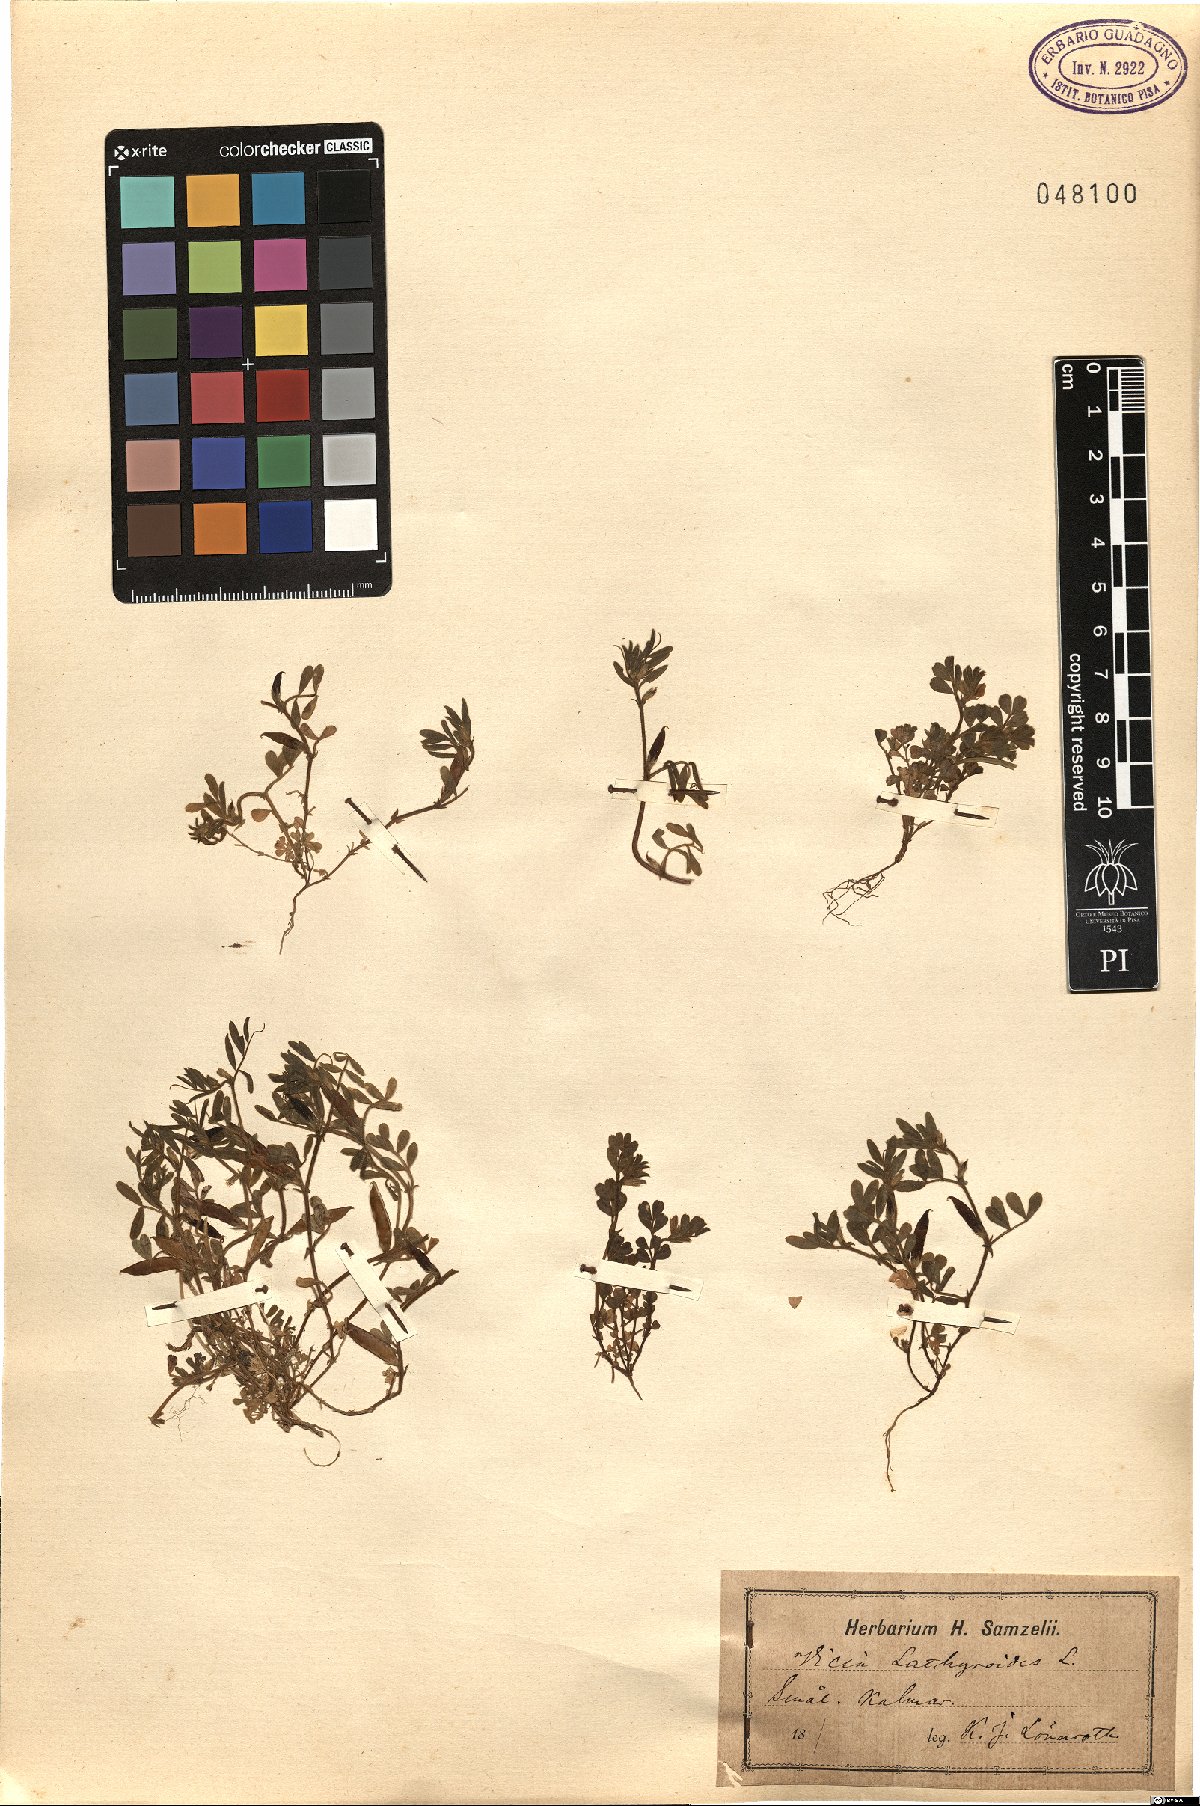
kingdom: Plantae
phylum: Tracheophyta
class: Magnoliopsida
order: Fabales
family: Fabaceae
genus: Vicia
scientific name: Vicia lathyroides
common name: Spring vetch
